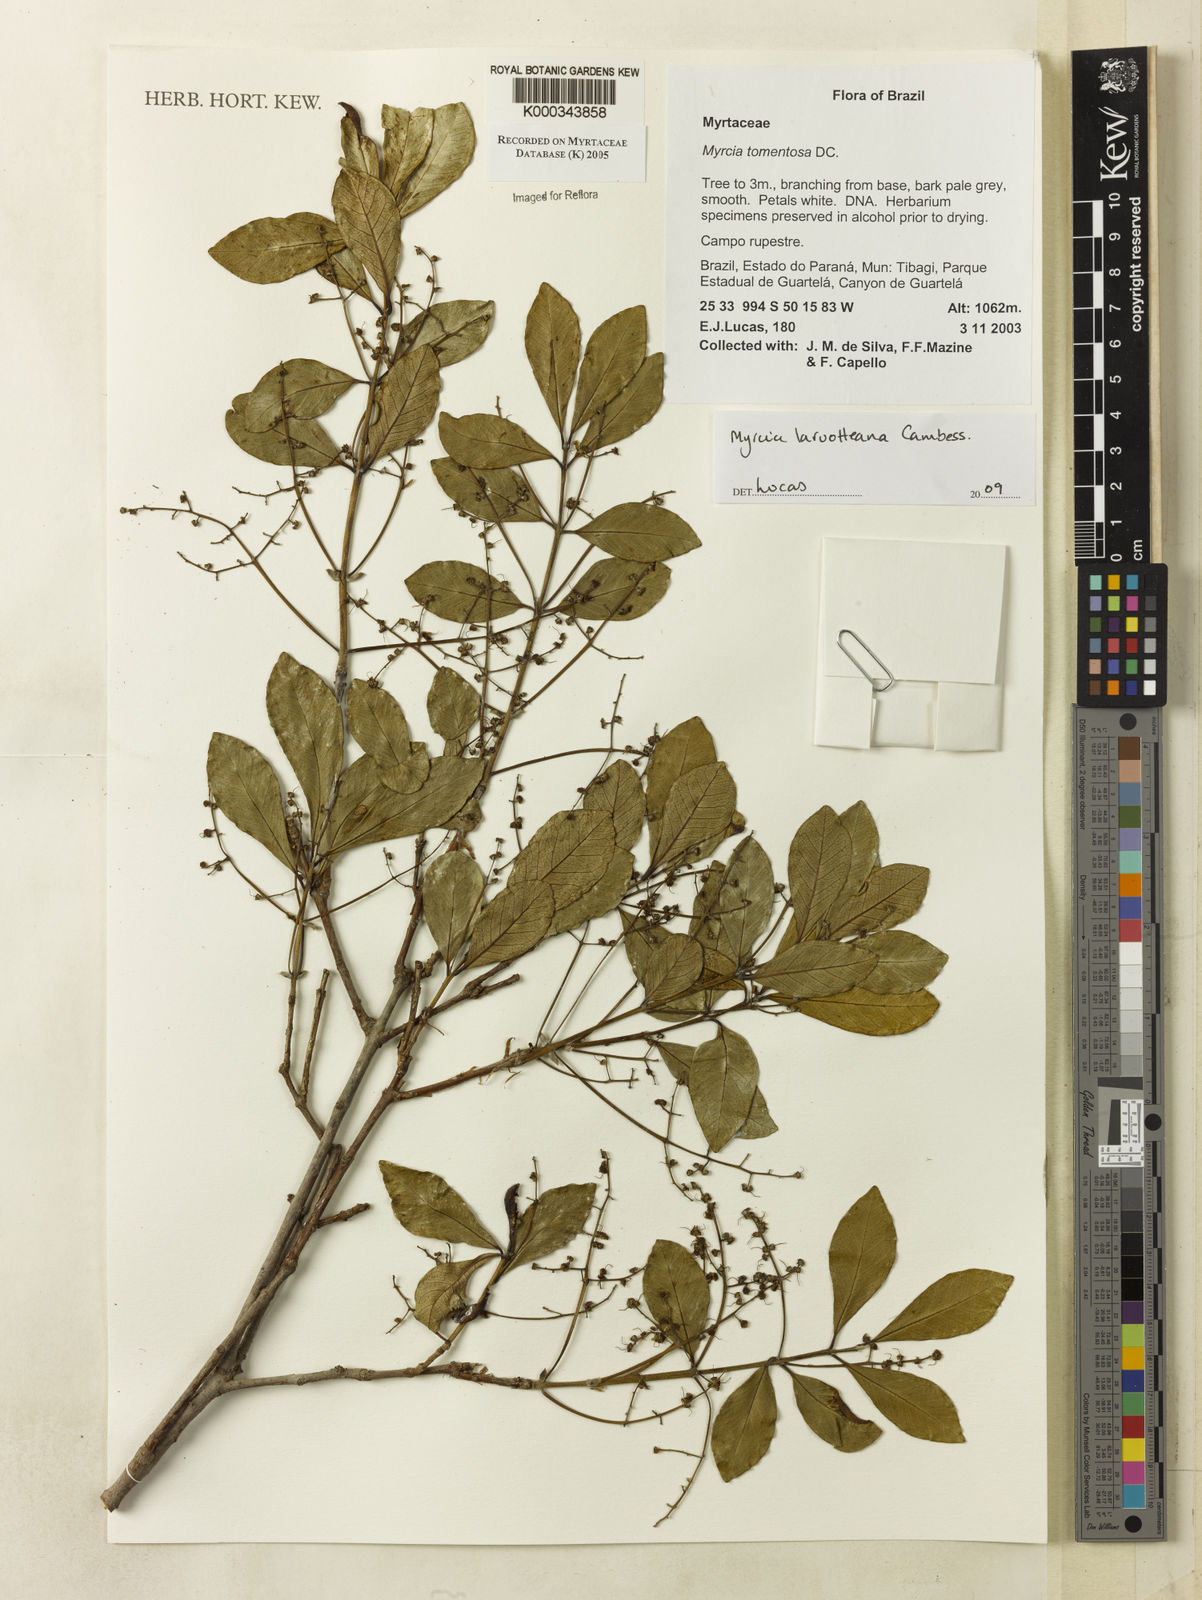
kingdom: Plantae
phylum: Tracheophyta
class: Magnoliopsida
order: Myrtales
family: Myrtaceae
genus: Myrcia
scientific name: Myrcia tomentosa
